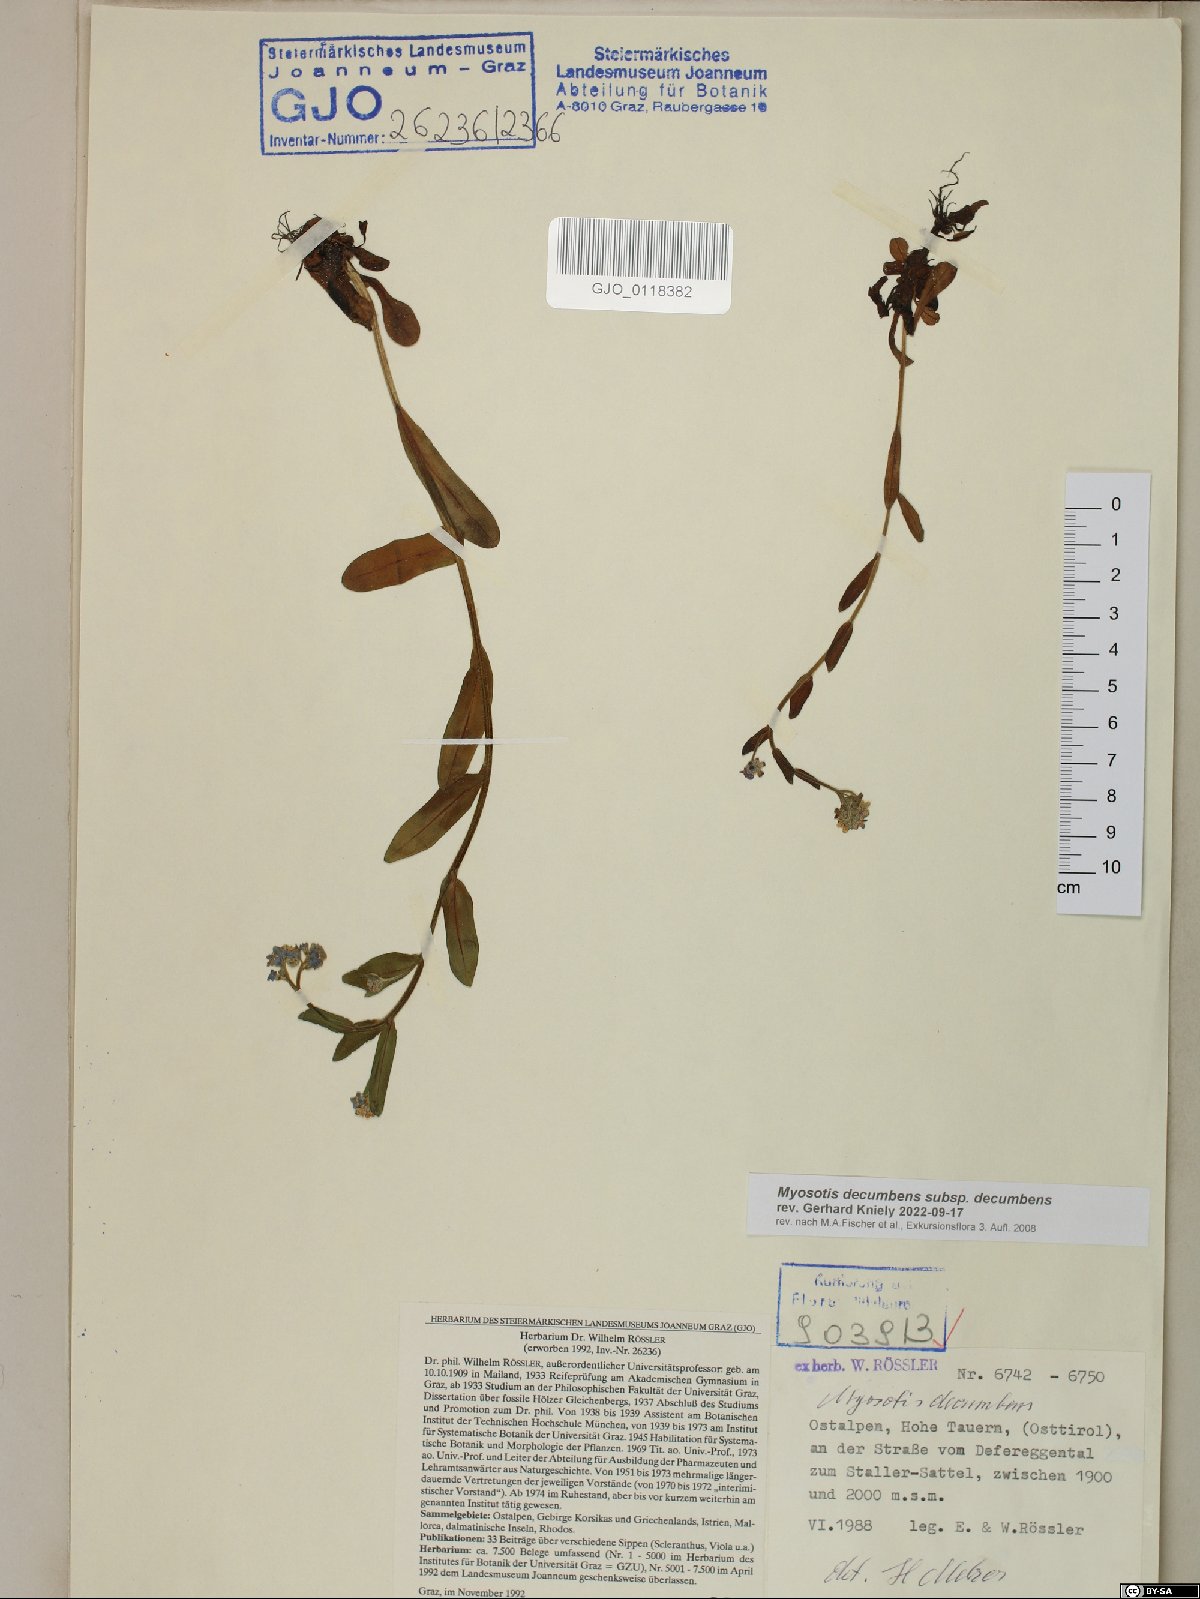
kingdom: Plantae
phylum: Tracheophyta
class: Magnoliopsida
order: Boraginales
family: Boraginaceae
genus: Myosotis
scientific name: Myosotis decumbens
